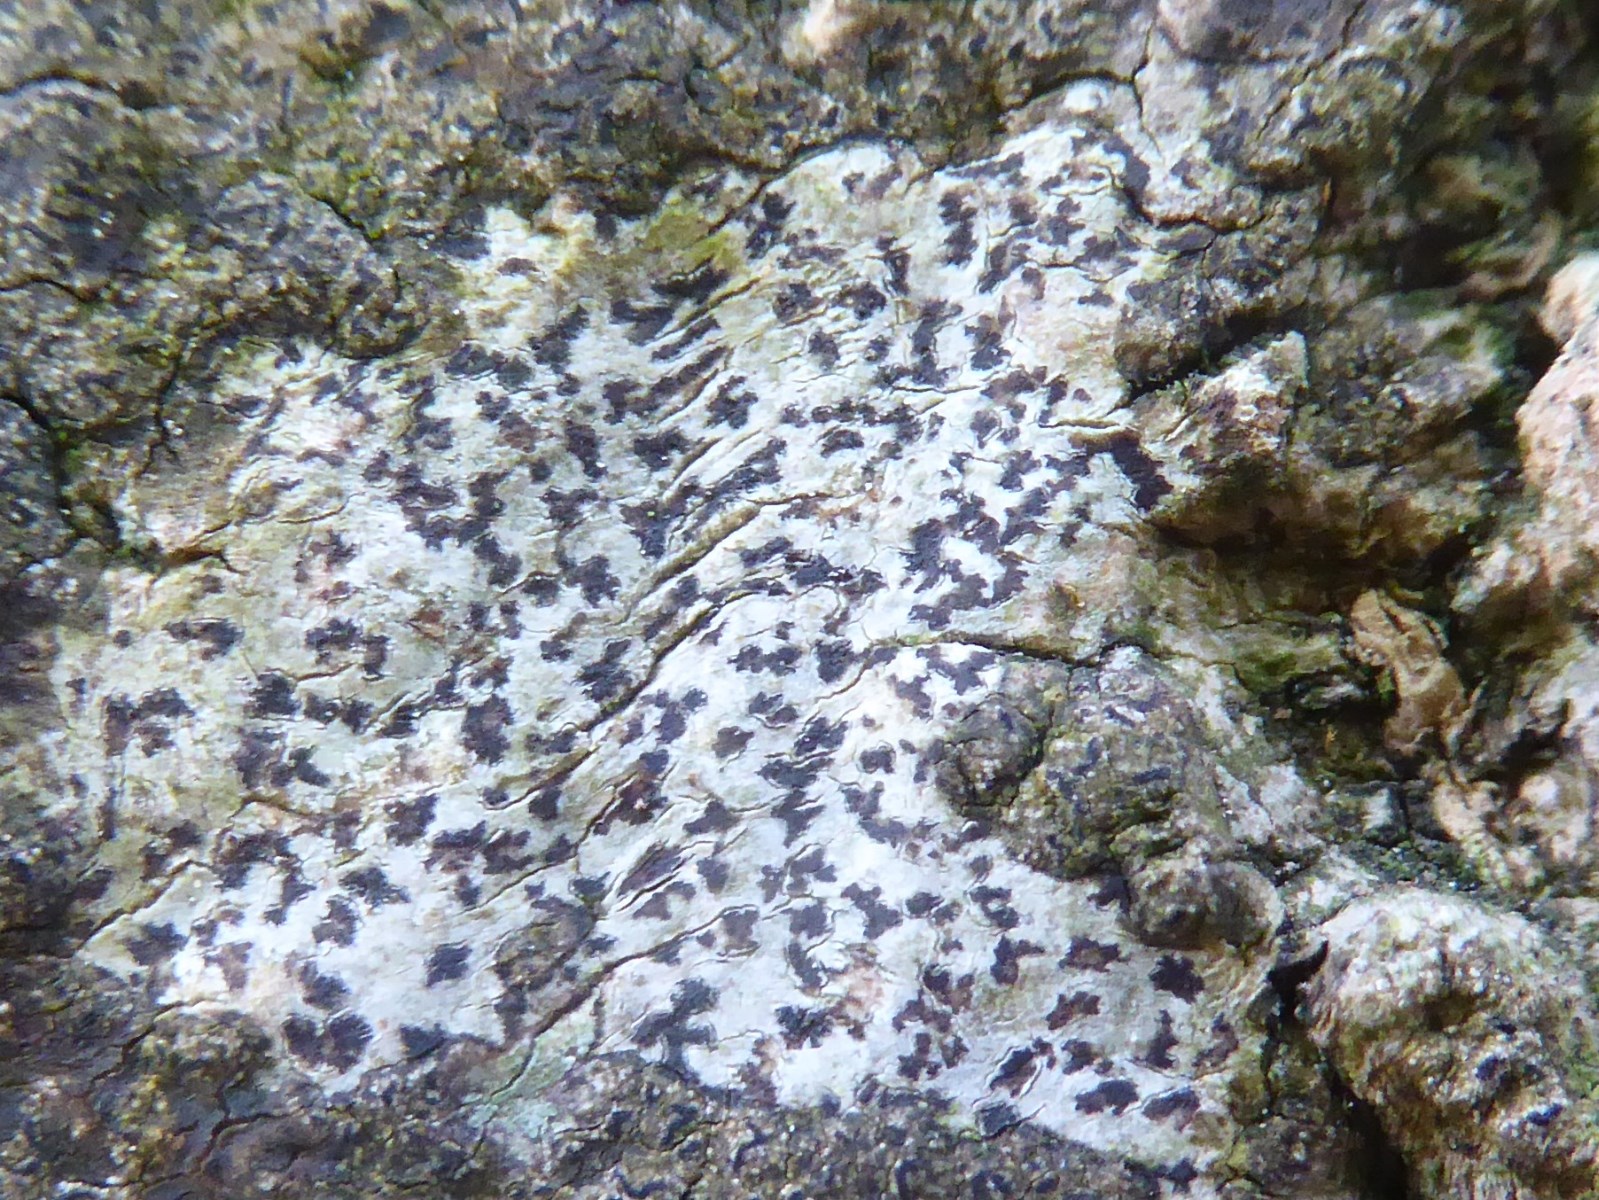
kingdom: Fungi
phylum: Ascomycota
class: Arthoniomycetes
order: Arthoniales
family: Arthoniaceae
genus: Arthonia
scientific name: Arthonia radiata
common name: stjerne-pletlav
